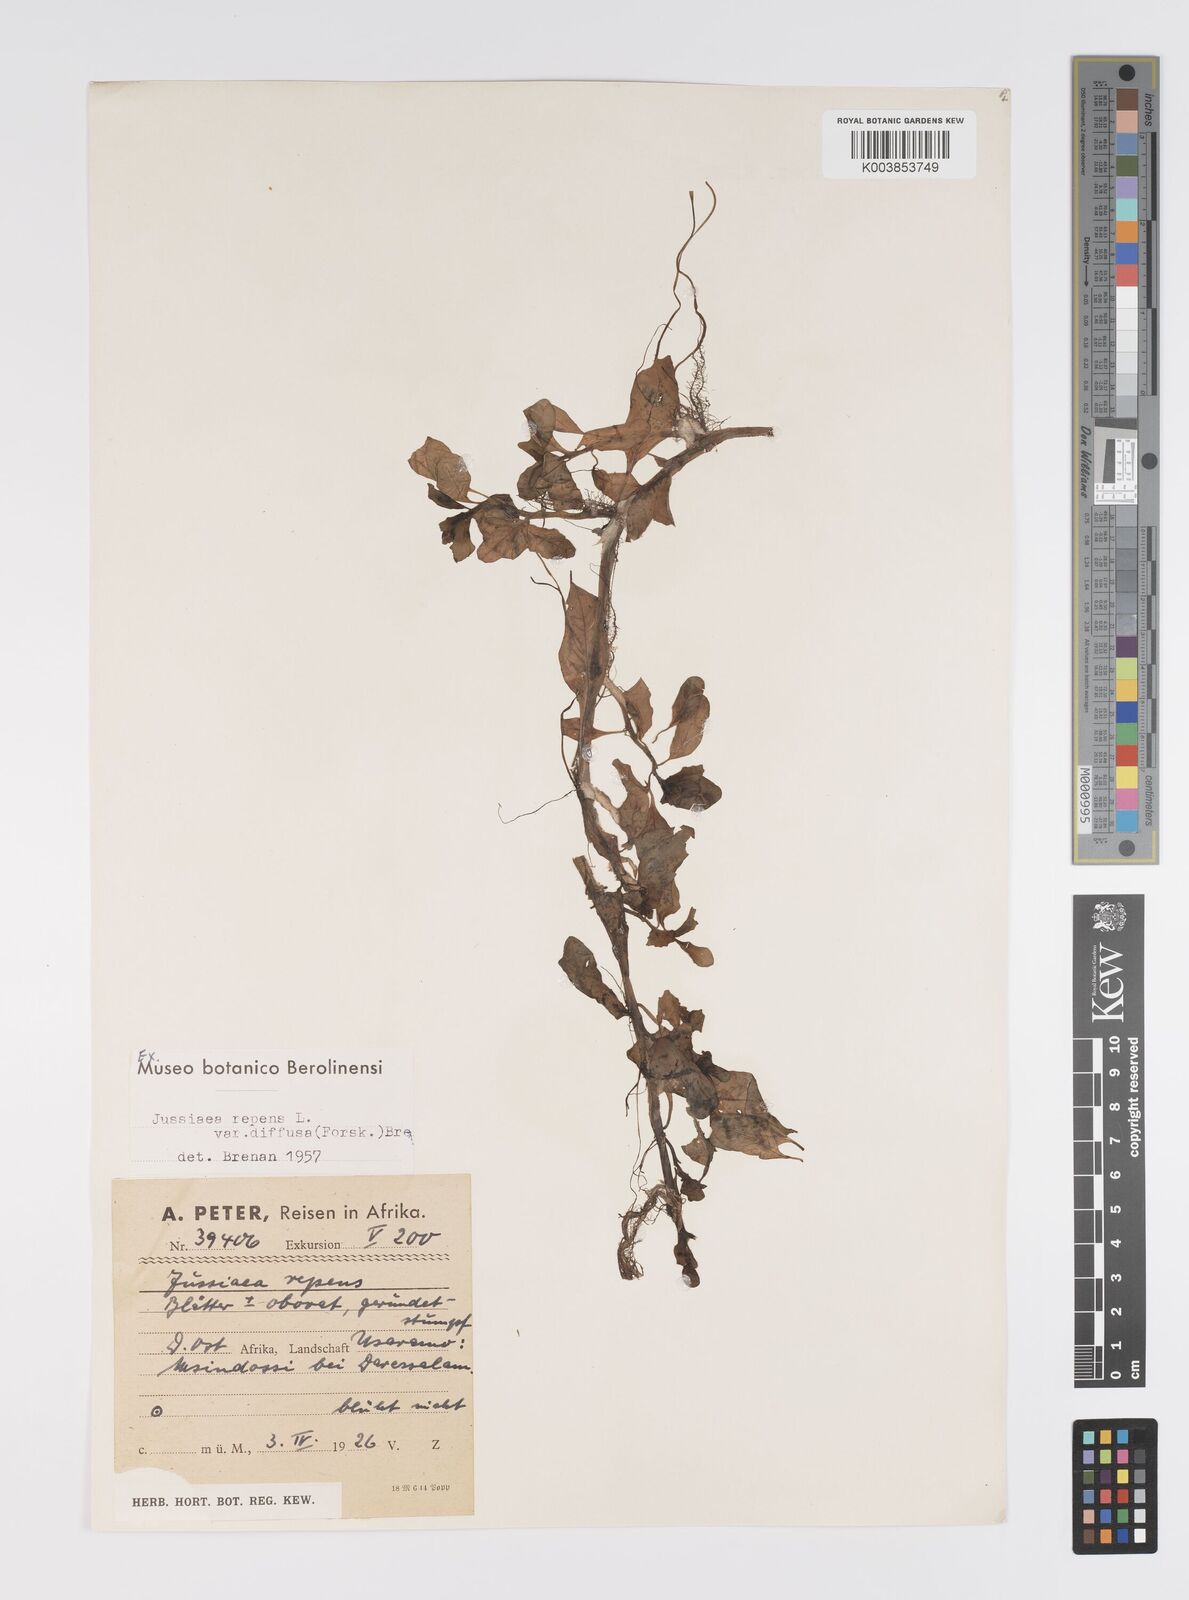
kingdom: Plantae
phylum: Tracheophyta
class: Magnoliopsida
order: Myrtales
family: Onagraceae
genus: Ludwigia
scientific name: Ludwigia adscendens
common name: Creeping water primrose
